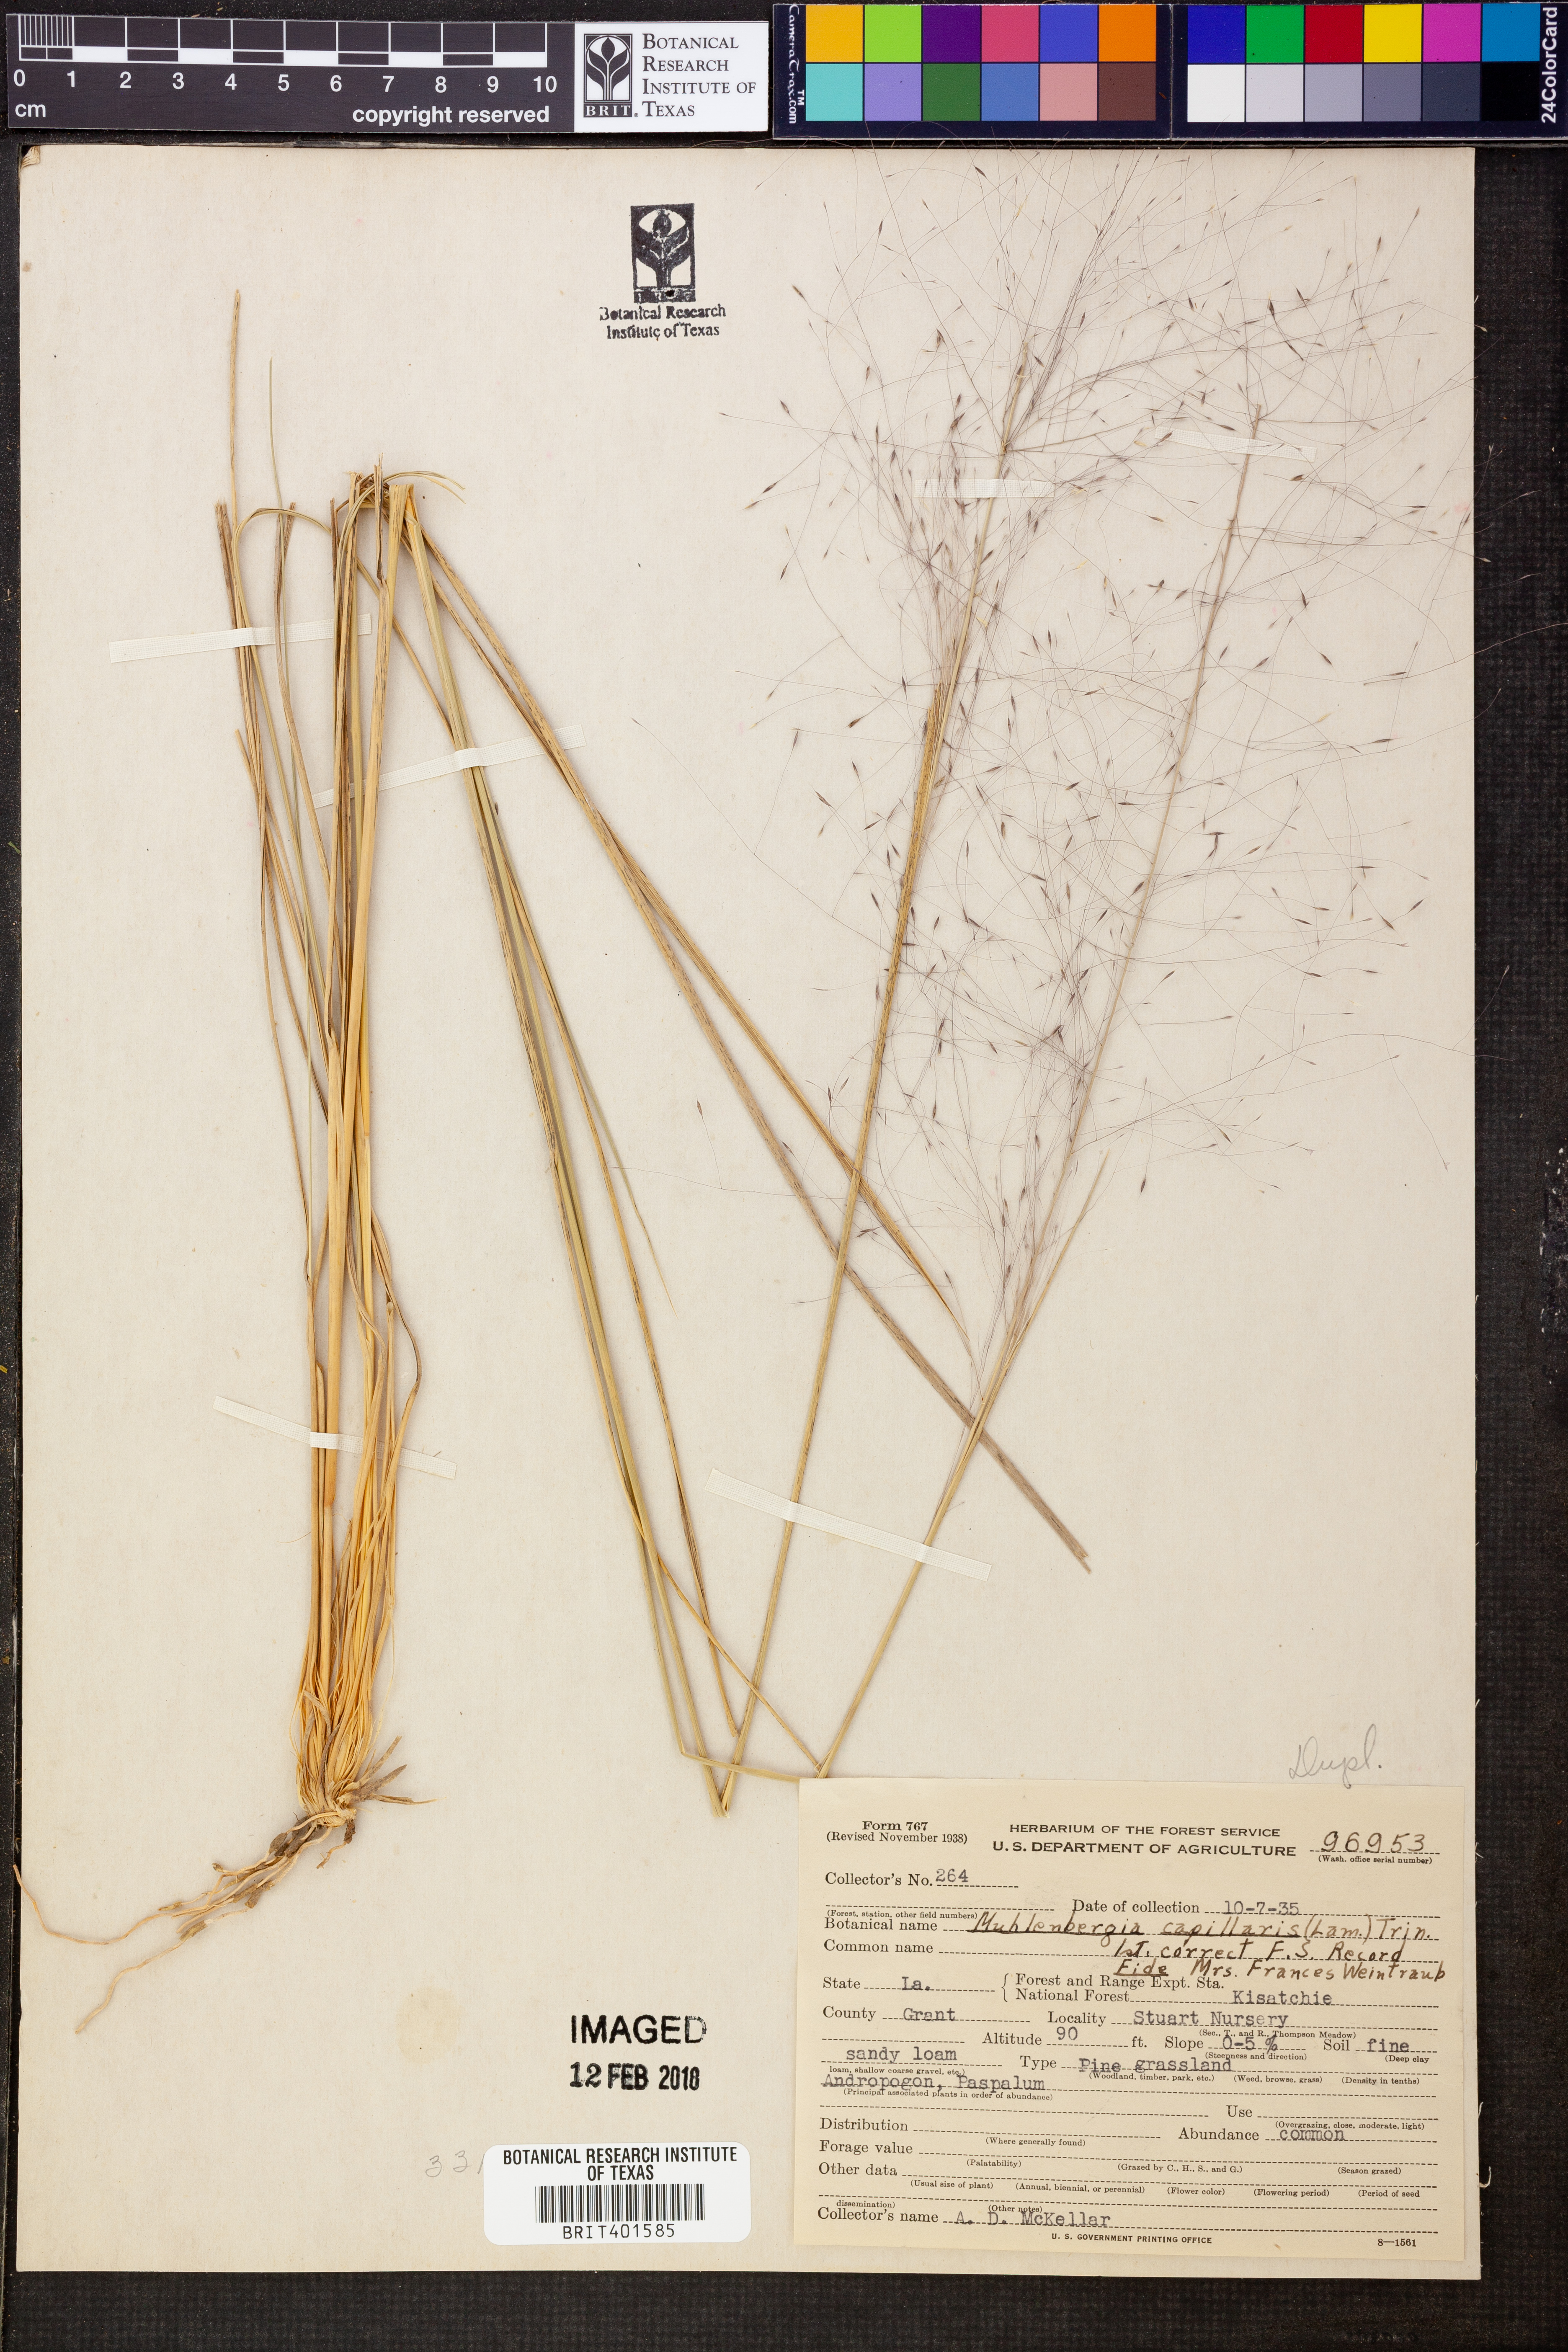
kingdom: Plantae
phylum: Tracheophyta
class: Liliopsida
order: Poales
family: Poaceae
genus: Muhlenbergia
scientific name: Muhlenbergia capillaris
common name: Purple grass
